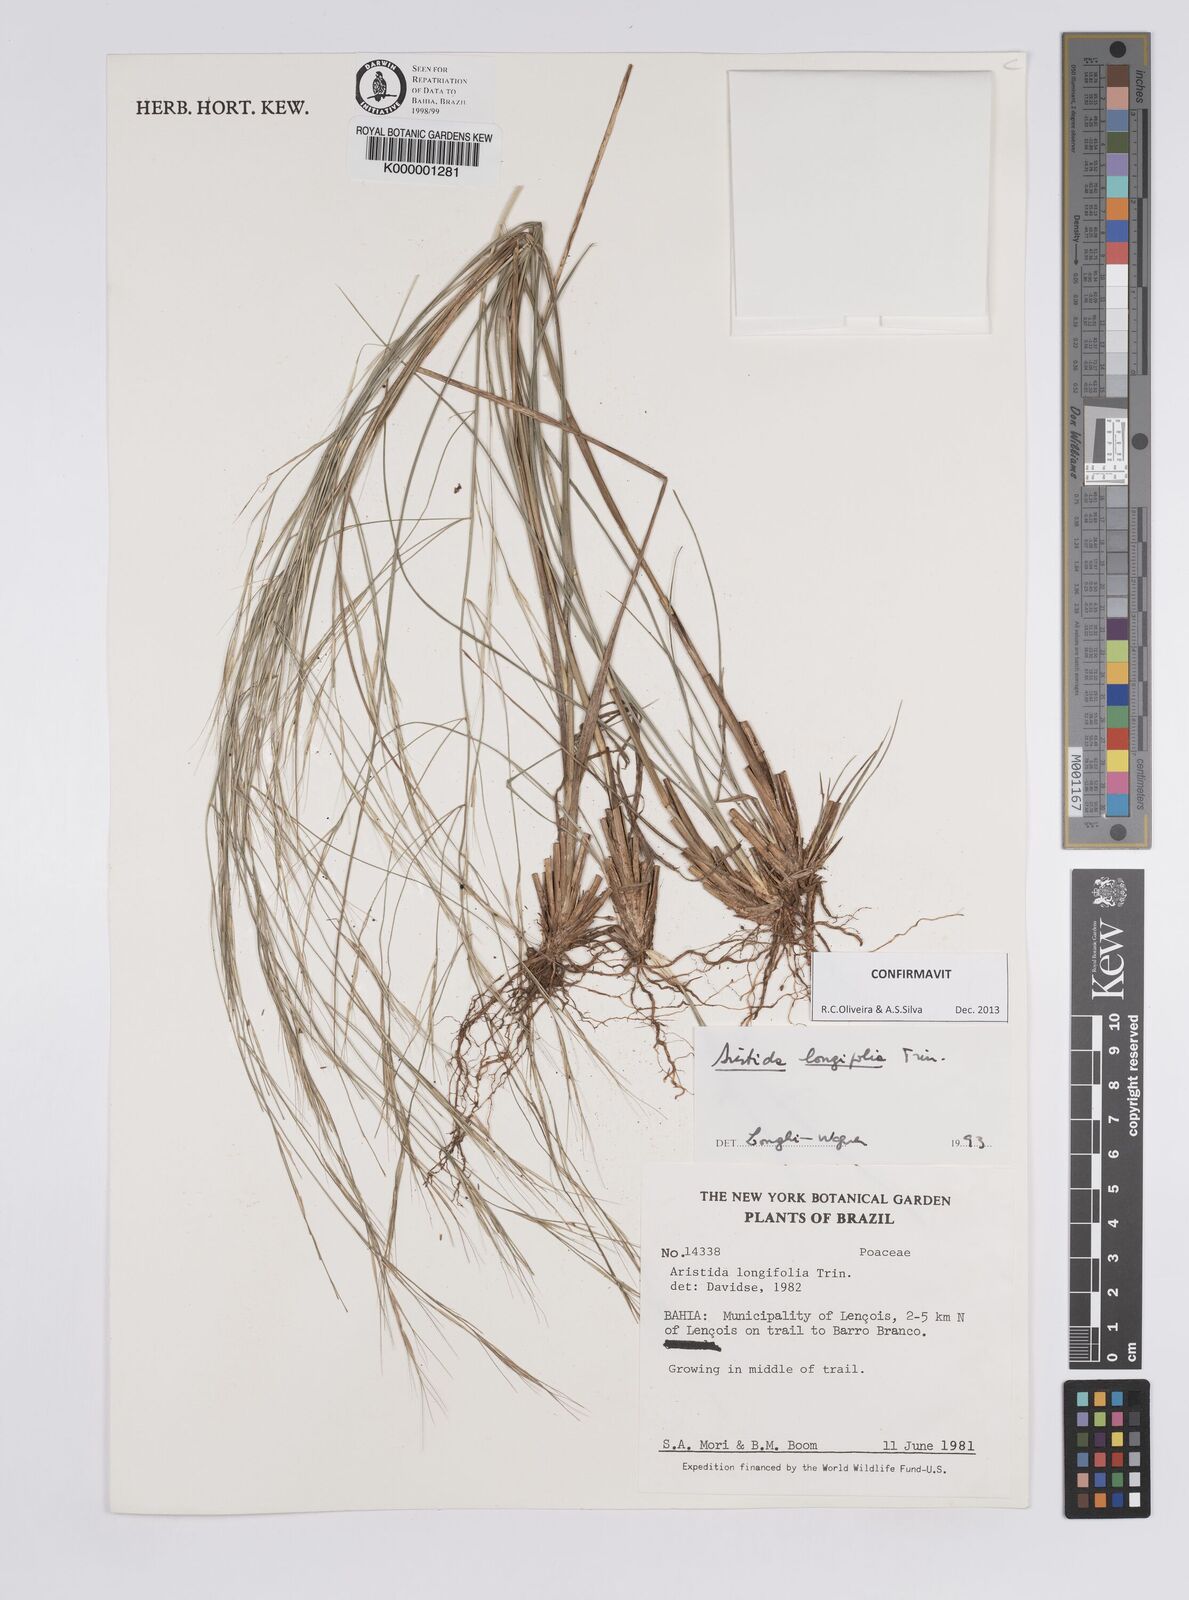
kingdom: Plantae
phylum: Tracheophyta
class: Liliopsida
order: Poales
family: Poaceae
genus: Aristida
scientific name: Aristida longifolia
